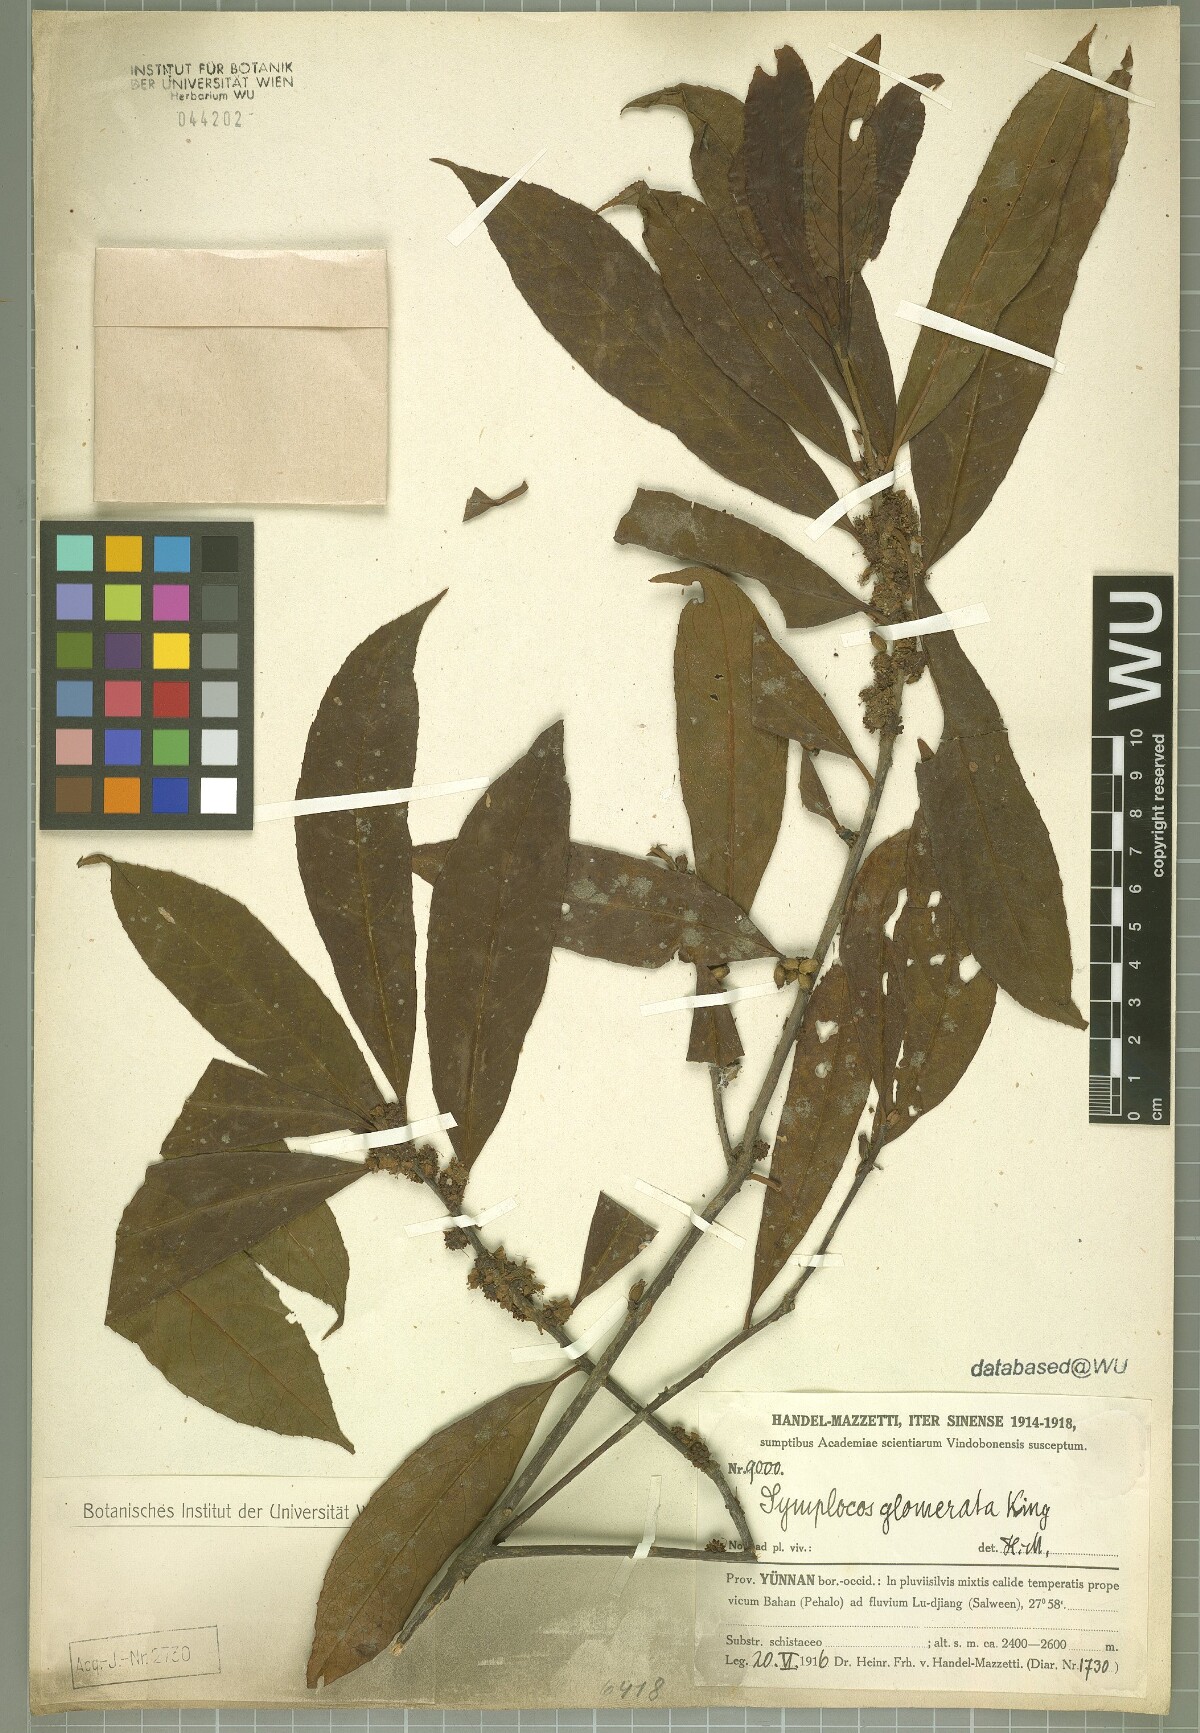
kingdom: Plantae
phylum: Tracheophyta
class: Magnoliopsida
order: Ericales
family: Symplocaceae
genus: Symplocos
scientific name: Symplocos glomerata
